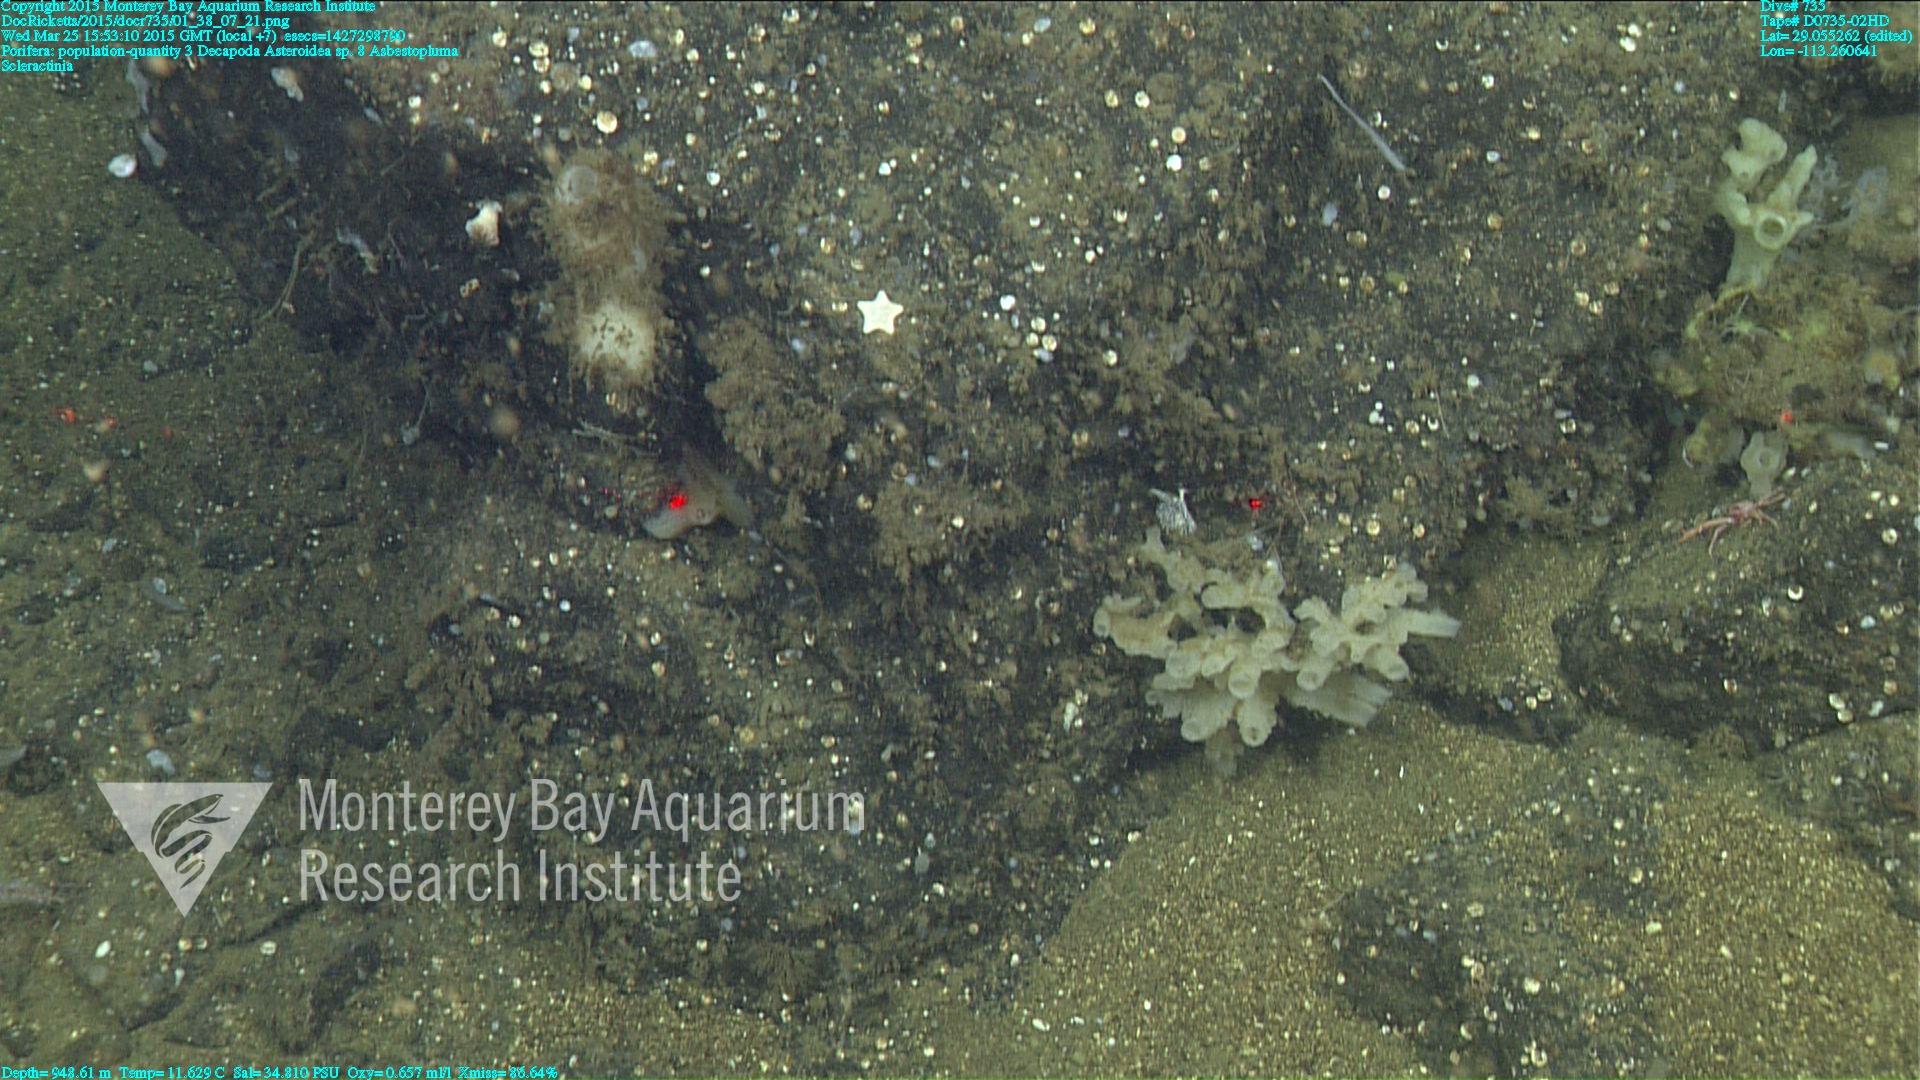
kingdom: Animalia
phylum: Cnidaria
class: Anthozoa
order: Scleractinia
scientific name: Scleractinia
